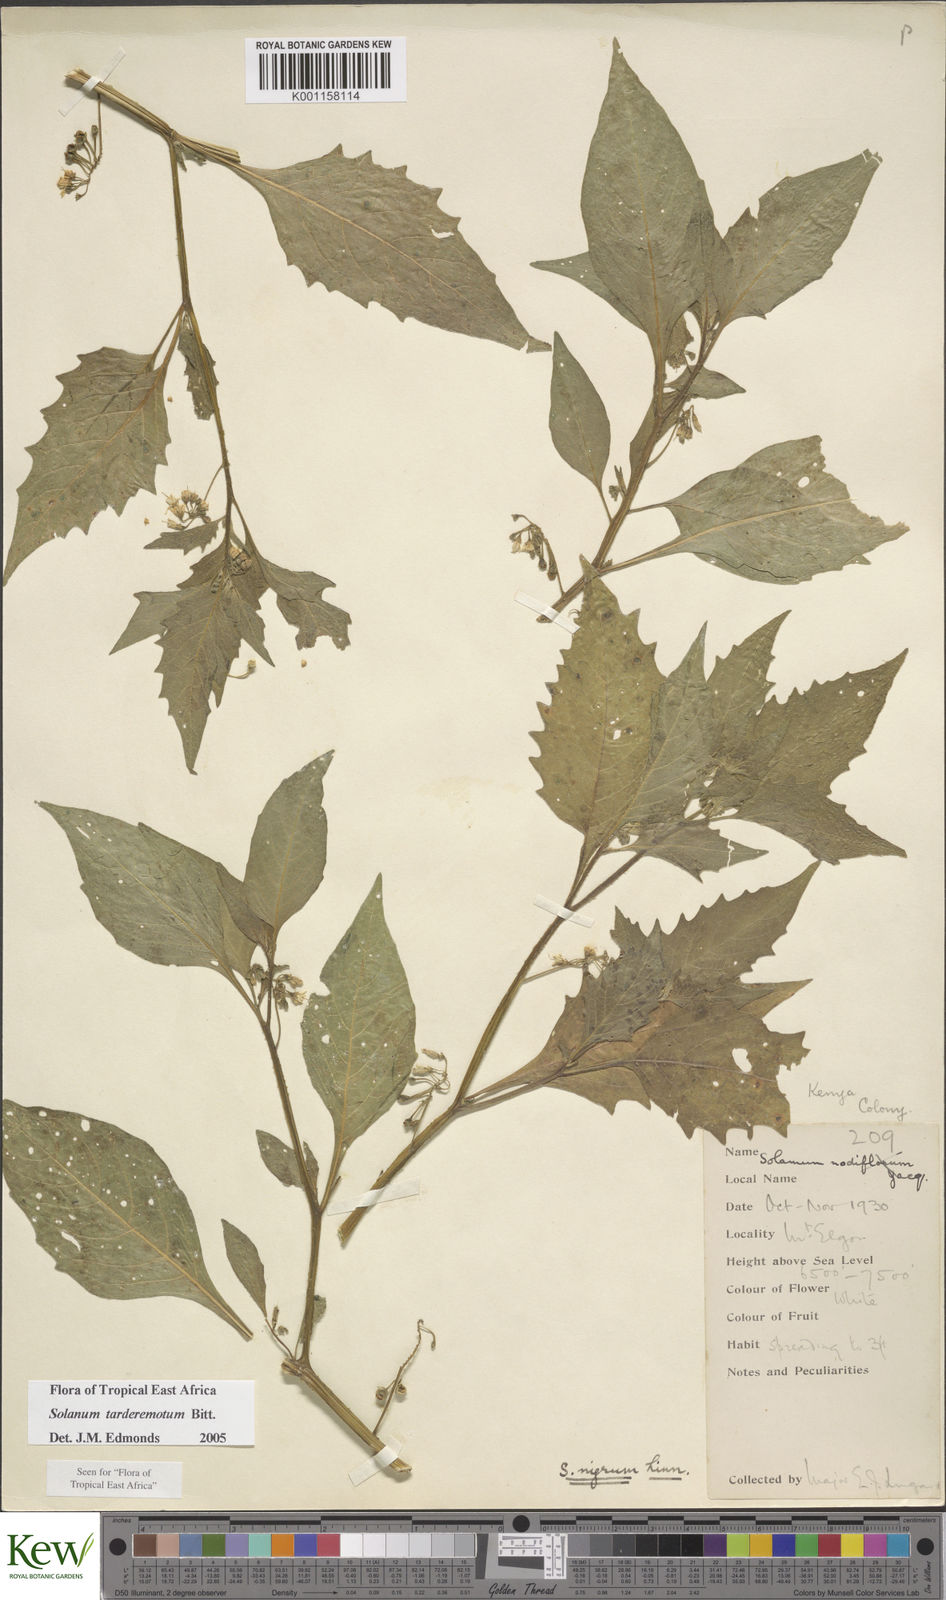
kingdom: Plantae
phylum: Tracheophyta
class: Magnoliopsida
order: Solanales
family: Solanaceae
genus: Solanum
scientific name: Solanum tarderemotum
